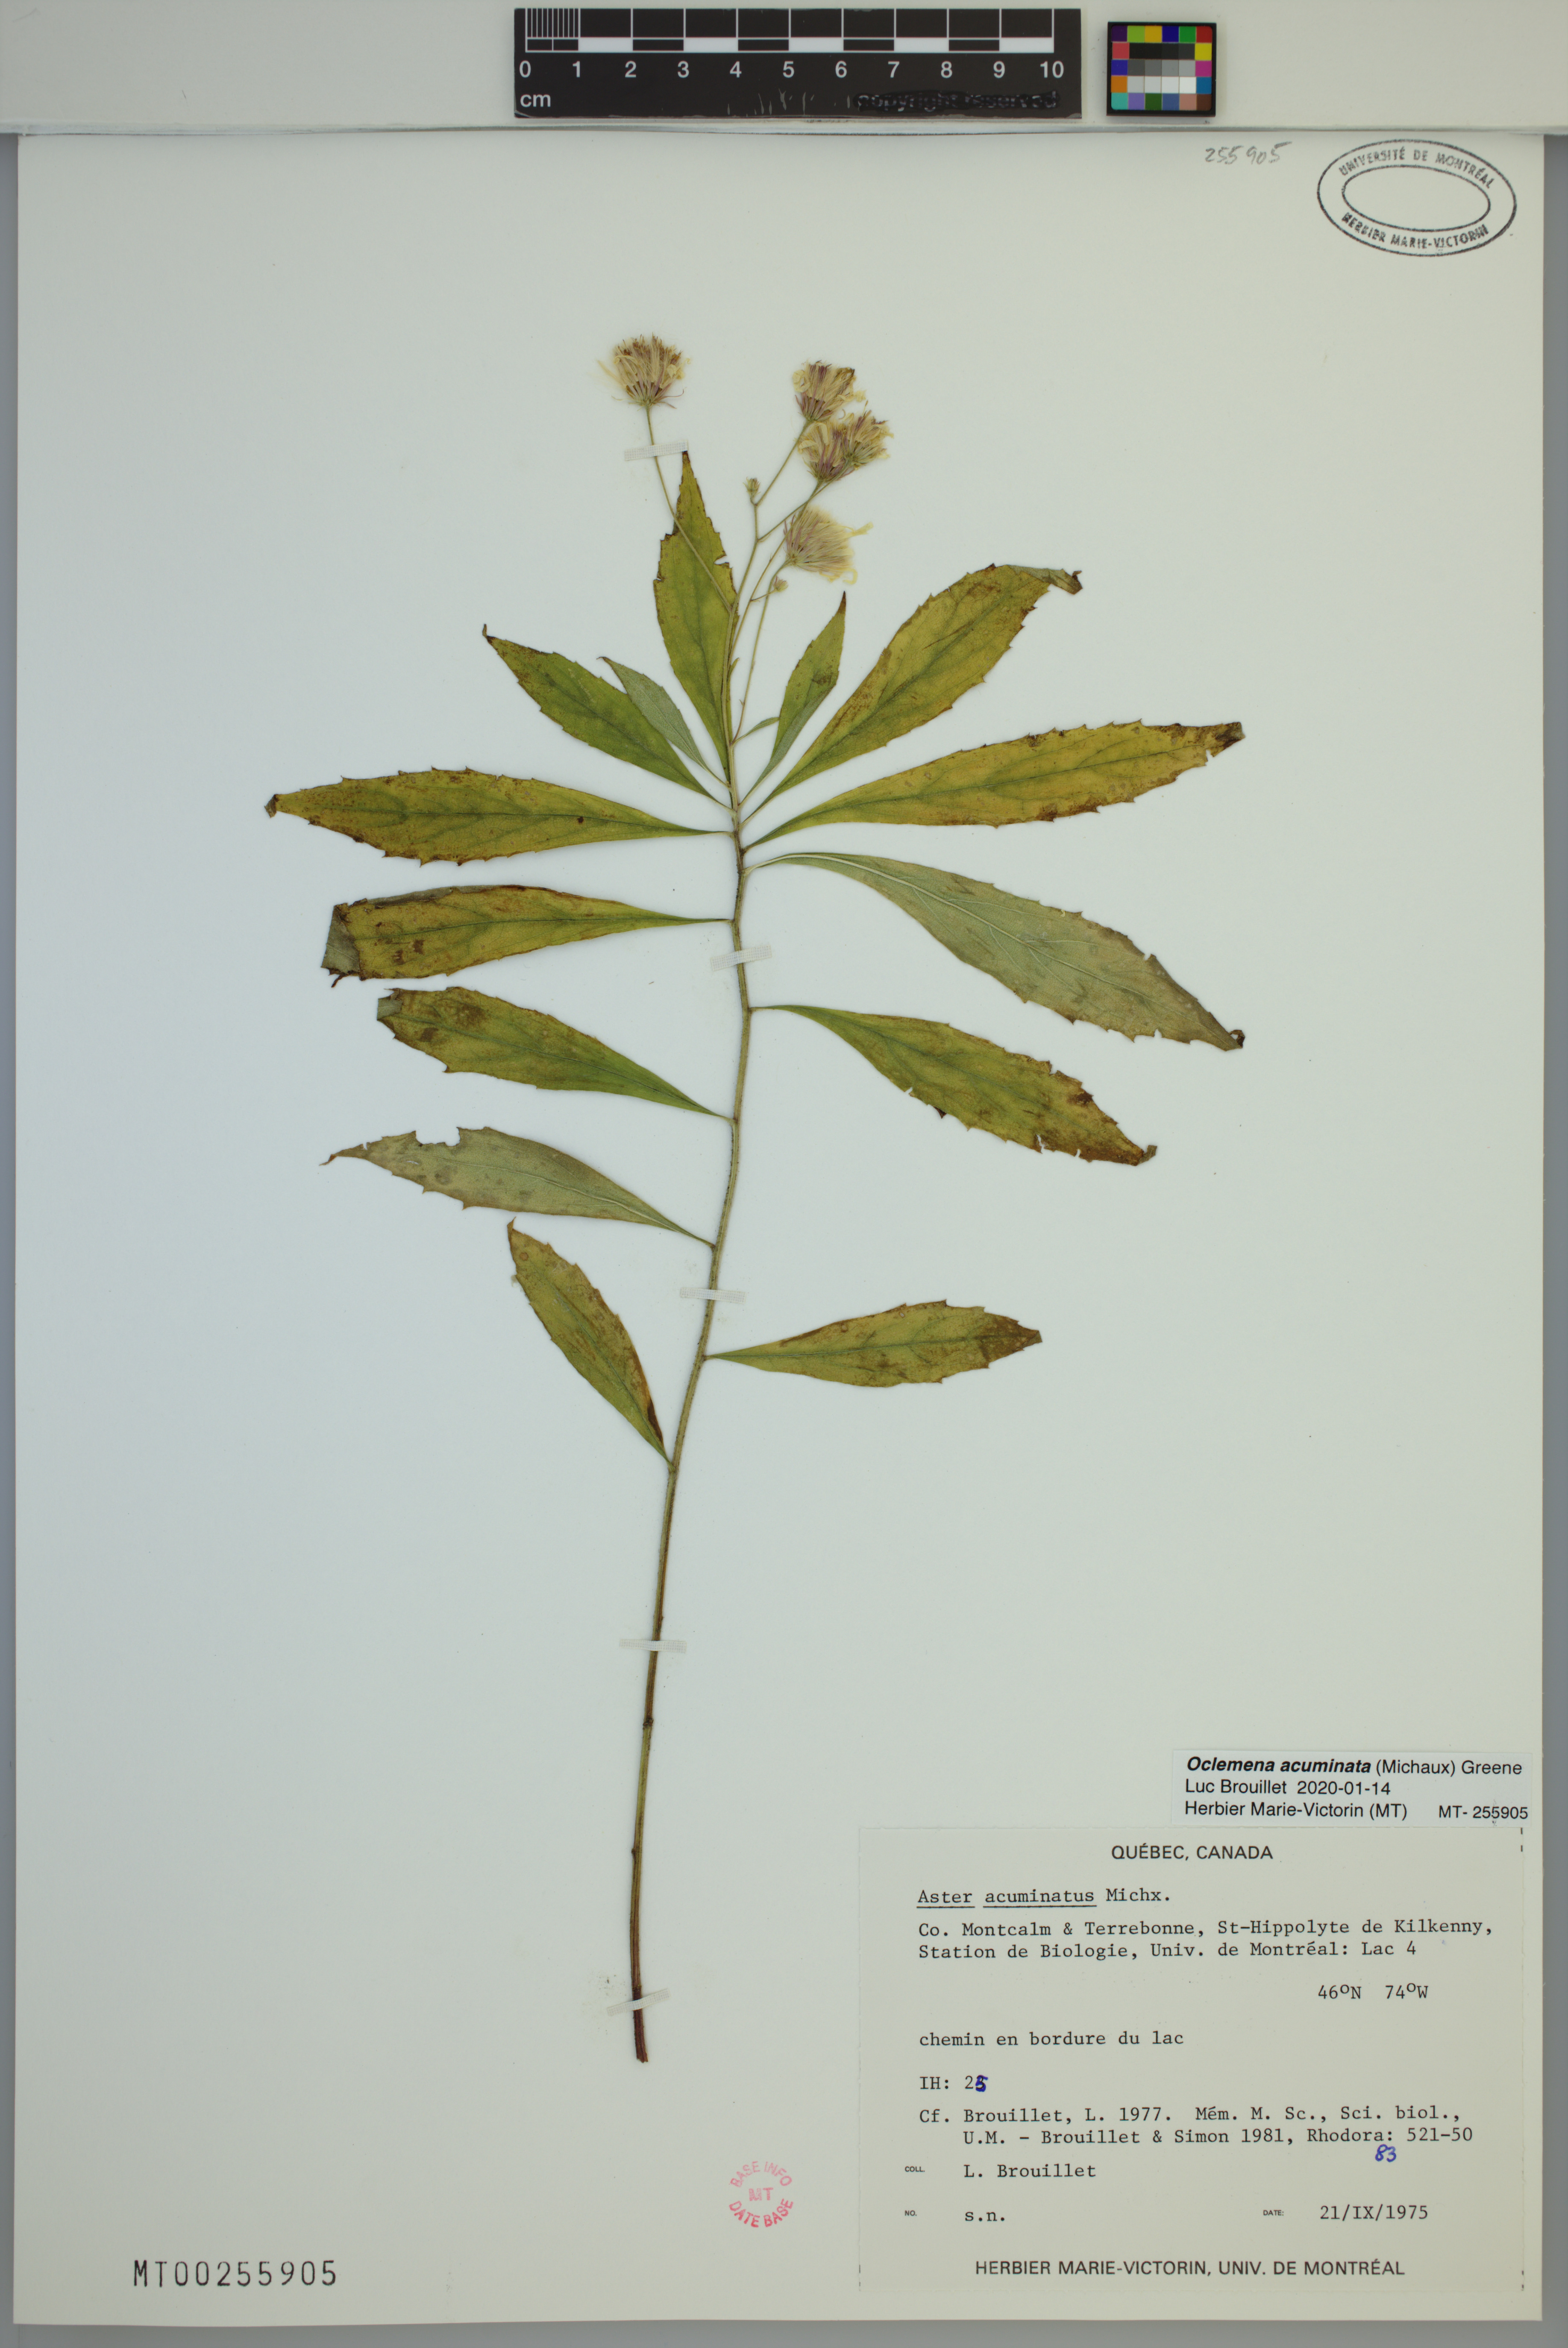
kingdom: Plantae
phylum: Tracheophyta
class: Magnoliopsida
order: Asterales
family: Asteraceae
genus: Oclemena
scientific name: Oclemena acuminata
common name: Mountain aster
